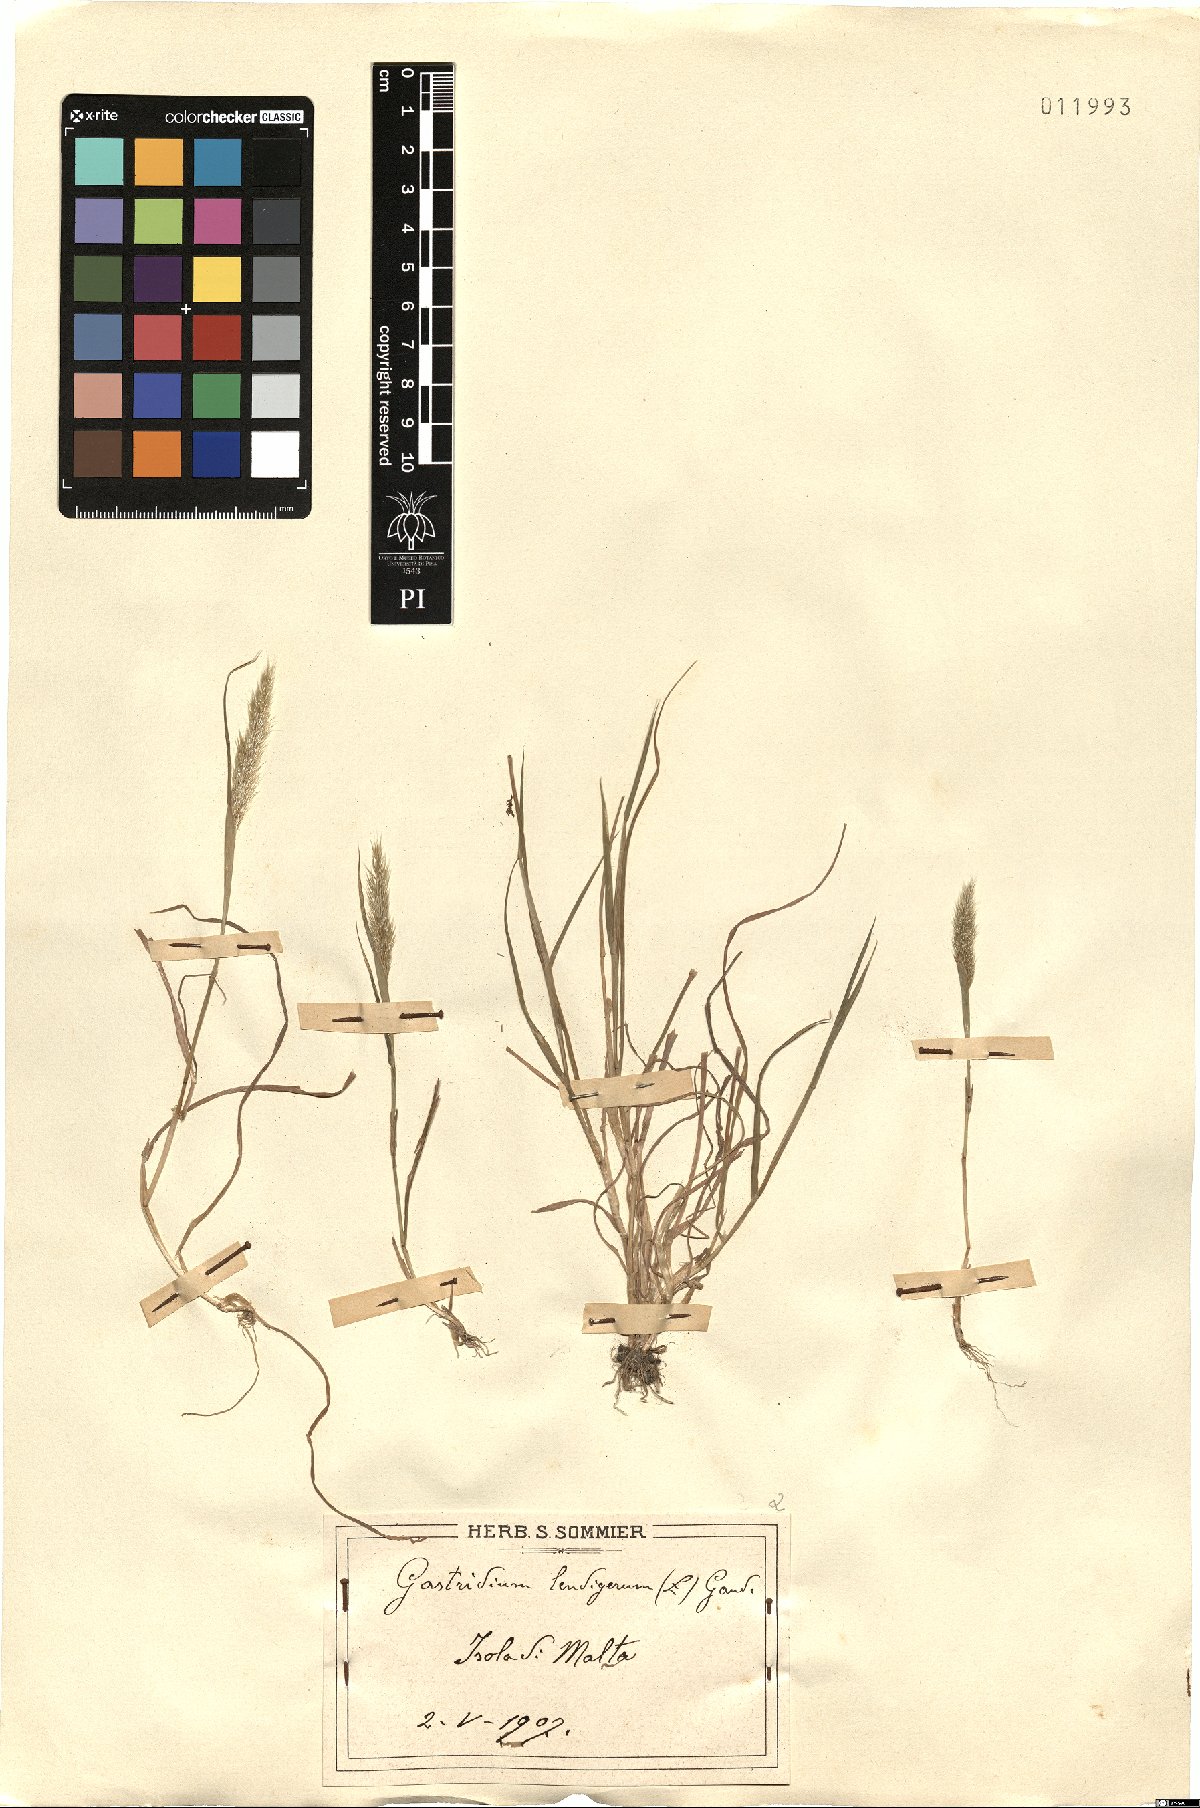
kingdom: Plantae
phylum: Tracheophyta
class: Liliopsida
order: Poales
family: Poaceae
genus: Gastridium
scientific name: Gastridium ventricosum
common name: Nit-grass
